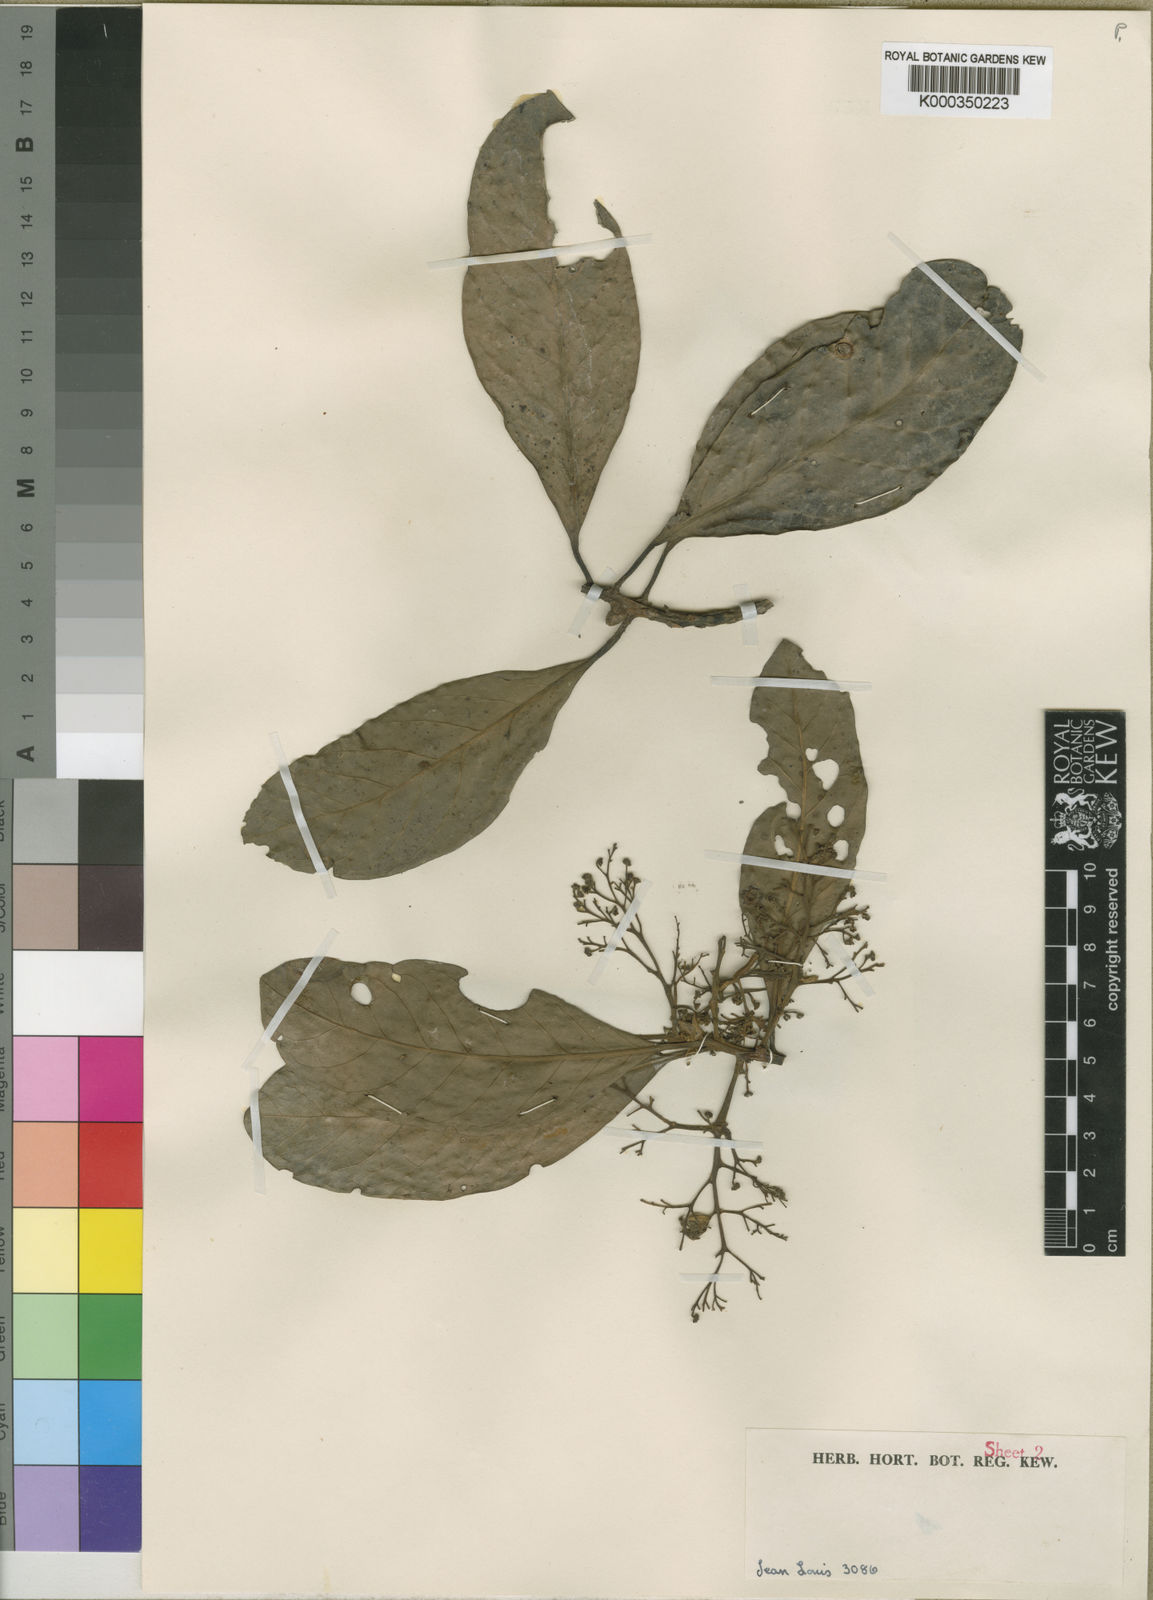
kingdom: Plantae
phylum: Tracheophyta
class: Magnoliopsida
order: Laurales
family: Lauraceae
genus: Beilschmiedia
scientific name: Beilschmiedia louisii
